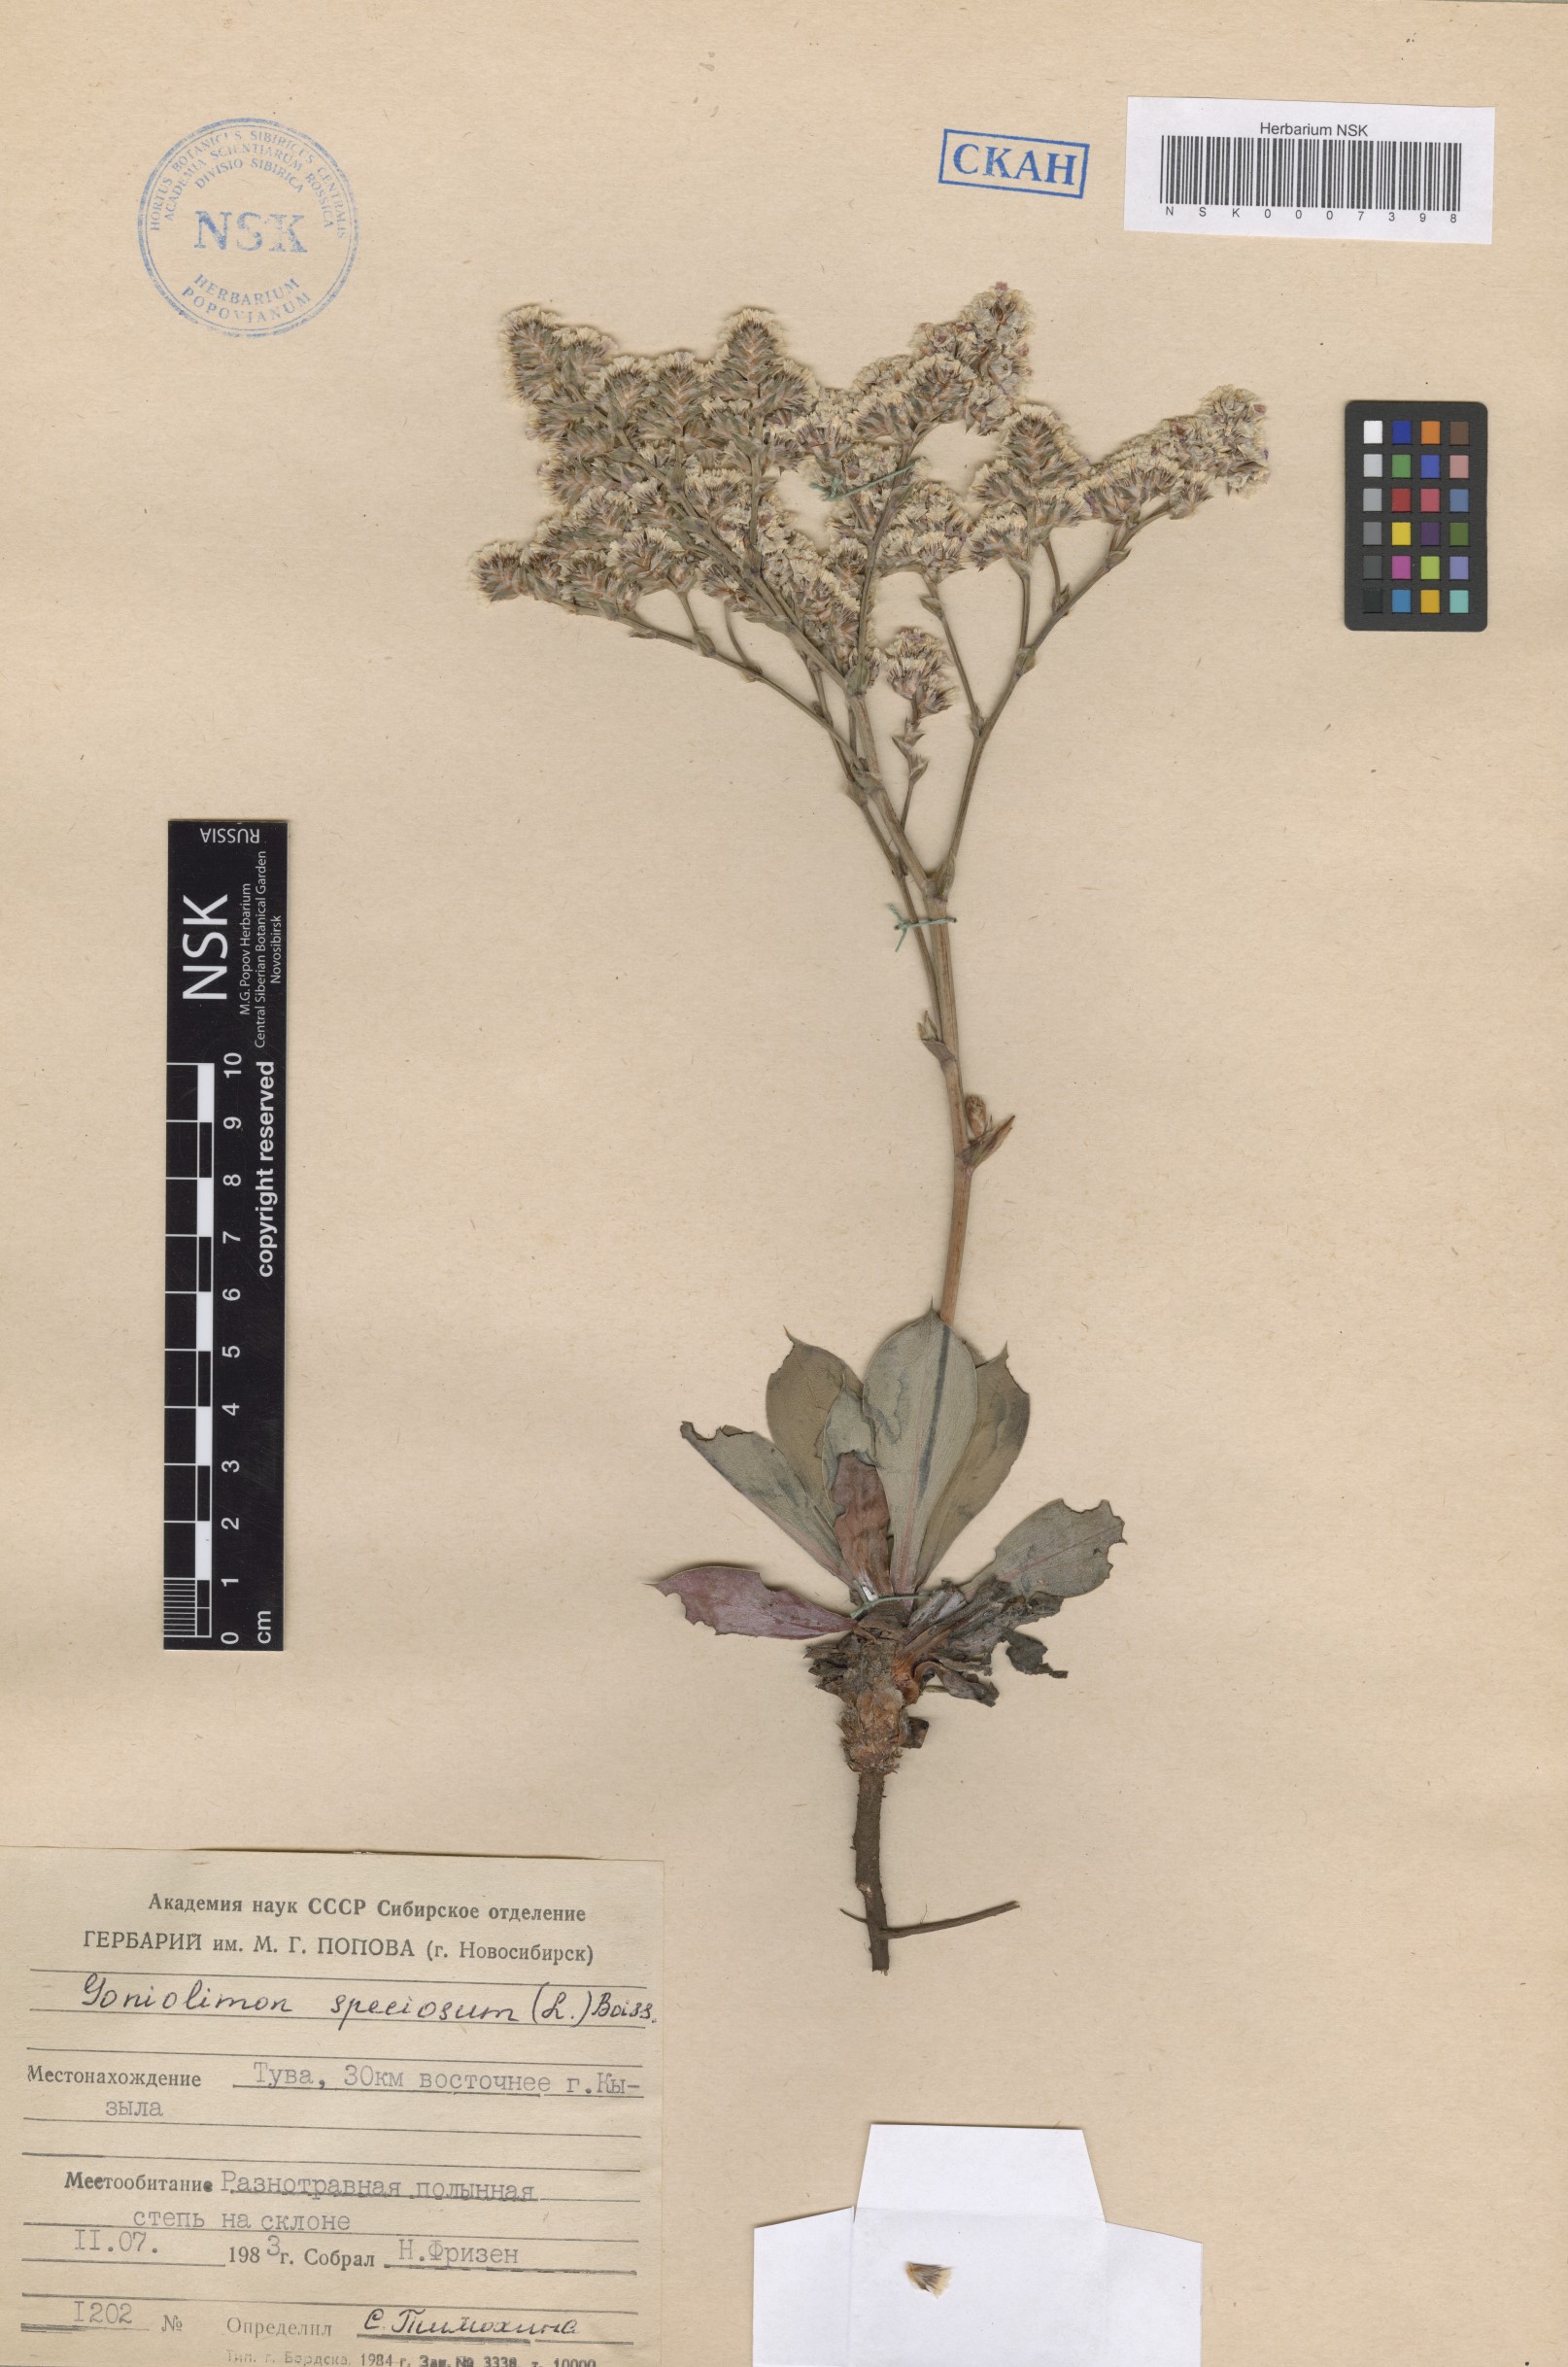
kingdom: Plantae
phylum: Tracheophyta
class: Magnoliopsida
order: Caryophyllales
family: Plumbaginaceae
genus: Goniolimon
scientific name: Goniolimon speciosum
